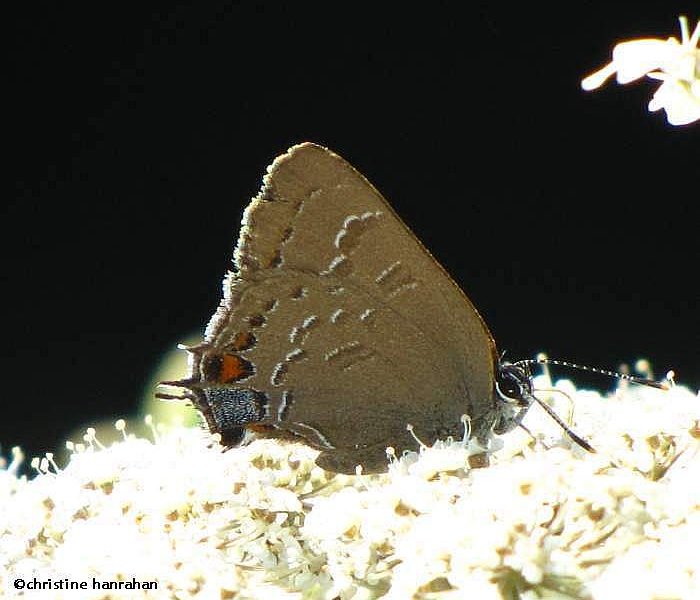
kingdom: Animalia
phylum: Arthropoda
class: Insecta
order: Lepidoptera
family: Lycaenidae
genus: Satyrium
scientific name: Satyrium calanus
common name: Banded Hairstreak
